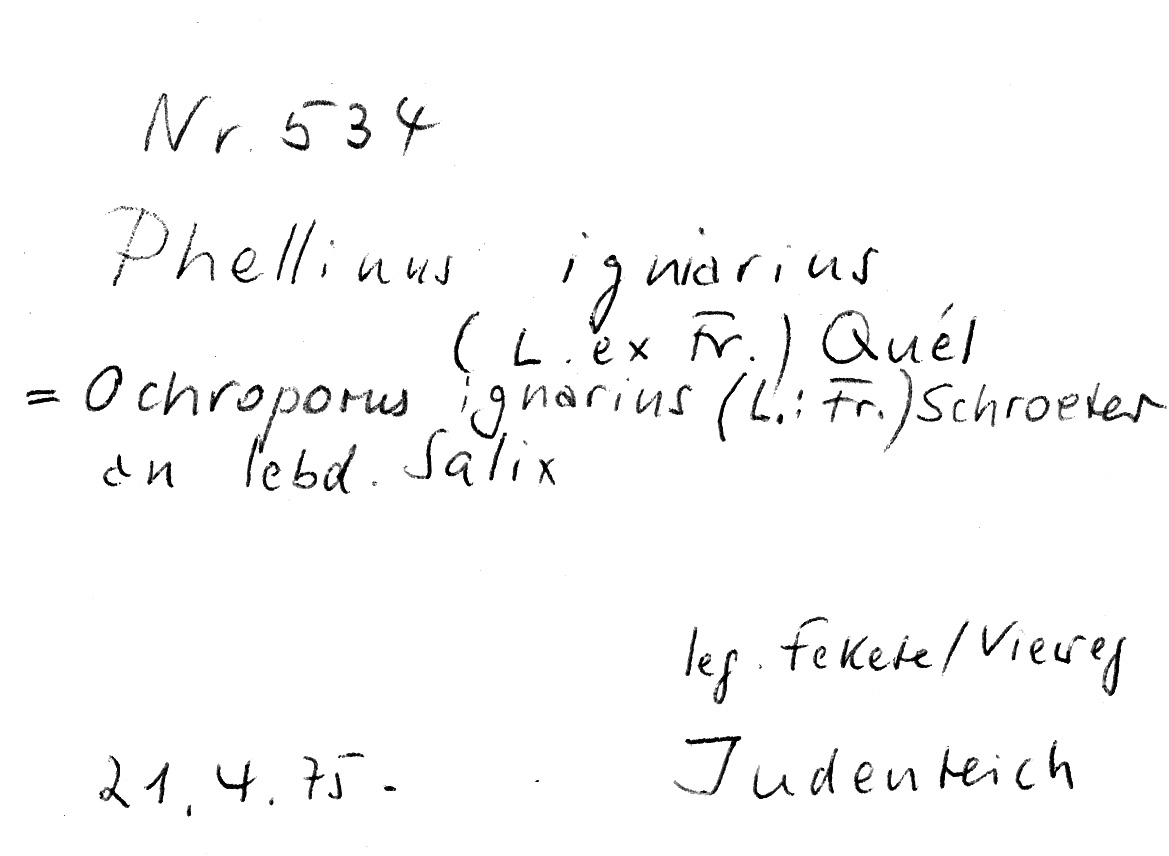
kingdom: Plantae
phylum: Tracheophyta
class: Magnoliopsida
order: Malpighiales
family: Salicaceae
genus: Salix
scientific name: Salix
